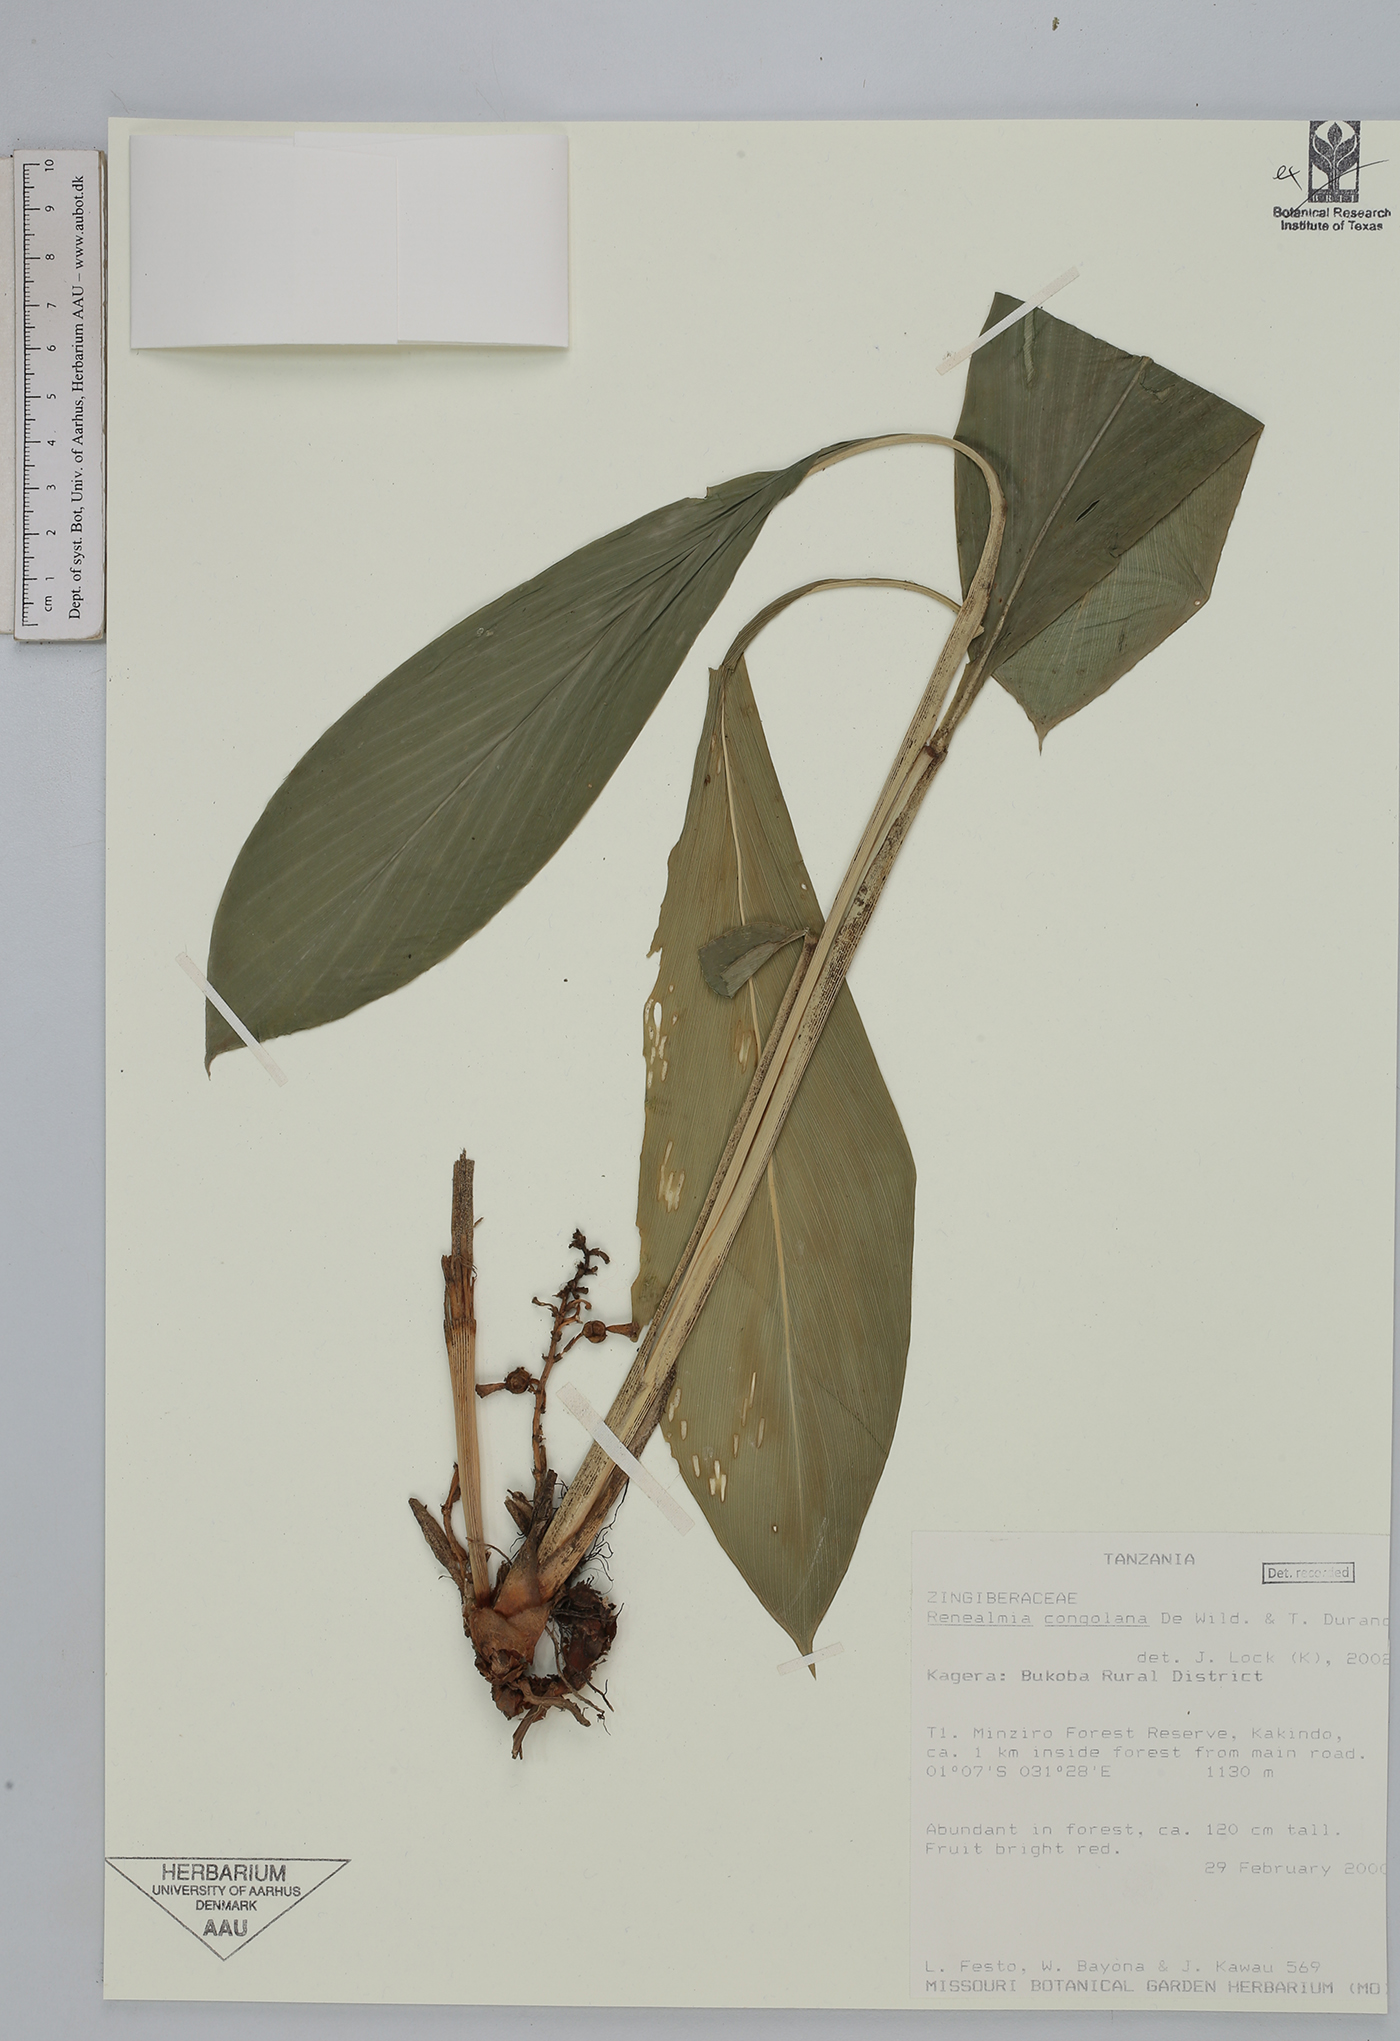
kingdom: Plantae
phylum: Tracheophyta
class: Liliopsida
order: Zingiberales
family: Zingiberaceae
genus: Renealmia
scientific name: Renealmia congolana
